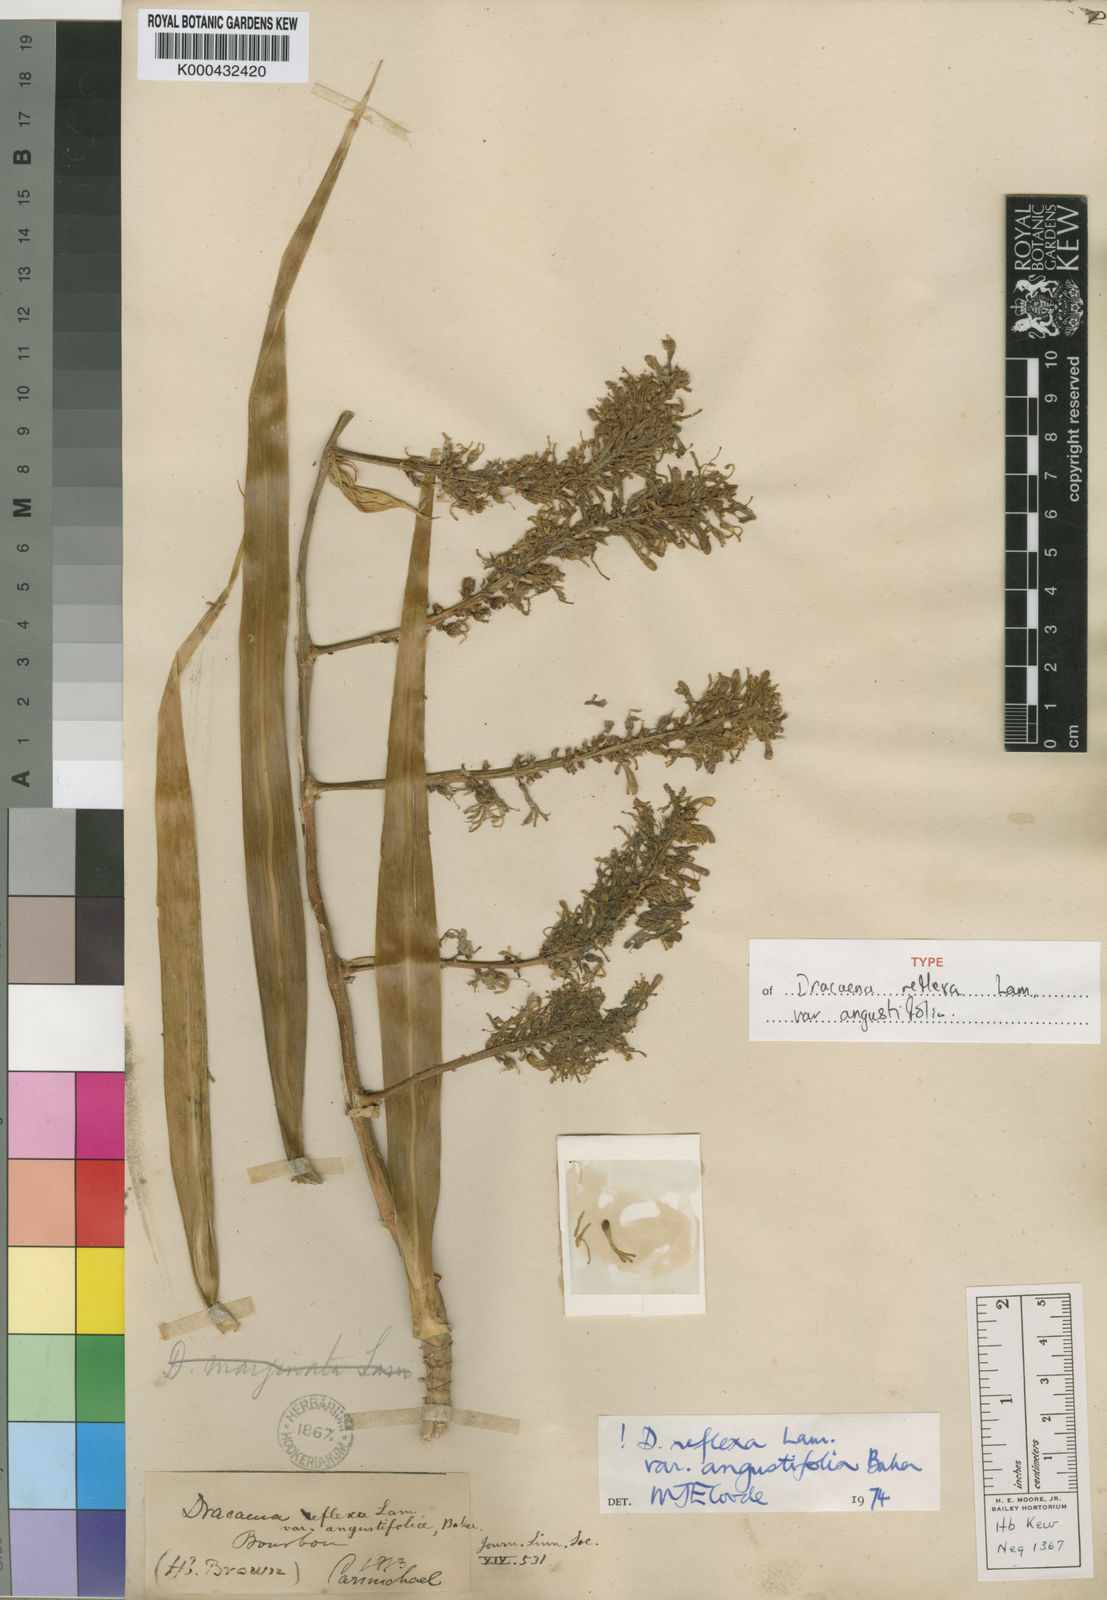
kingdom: Plantae
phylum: Tracheophyta
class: Liliopsida
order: Asparagales
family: Asparagaceae
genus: Dracaena
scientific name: Dracaena reflexa
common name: Song-of-india
